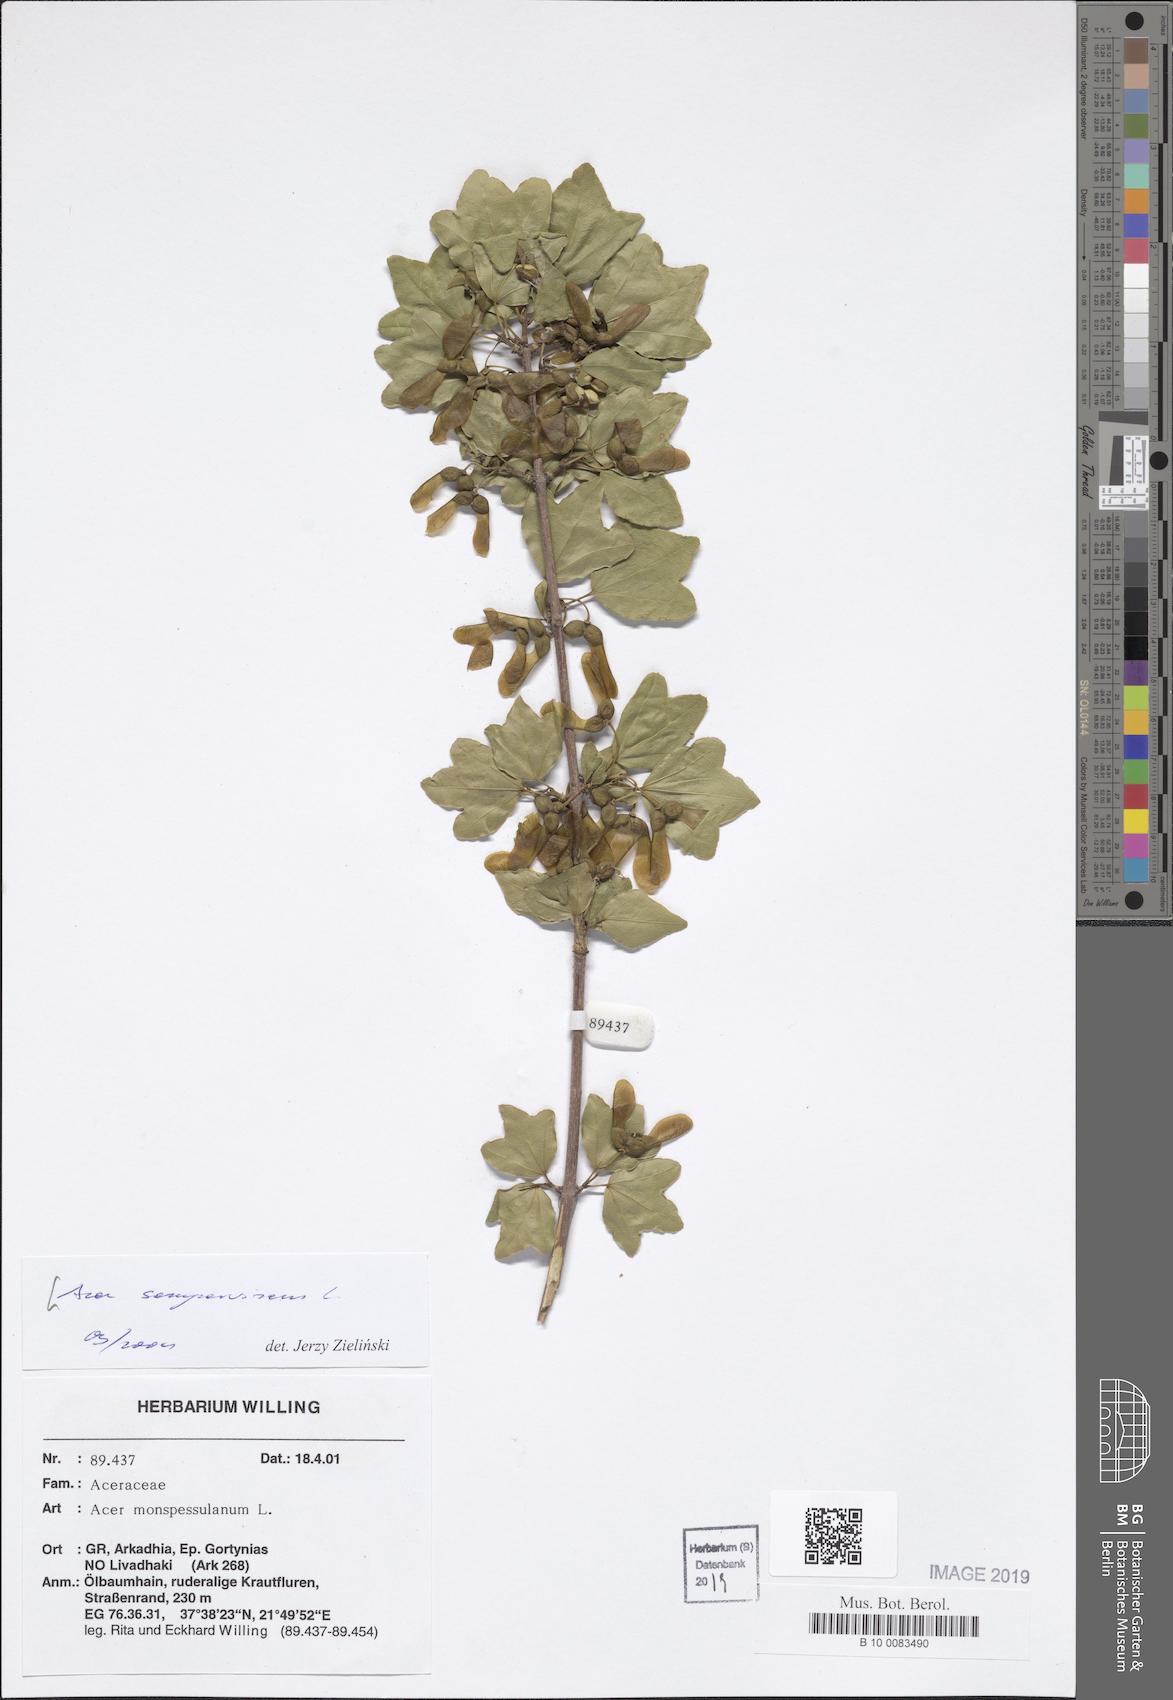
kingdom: Plantae
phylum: Tracheophyta
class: Magnoliopsida
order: Sapindales
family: Sapindaceae
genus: Acer
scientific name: Acer sempervirens
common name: Cretan maple
